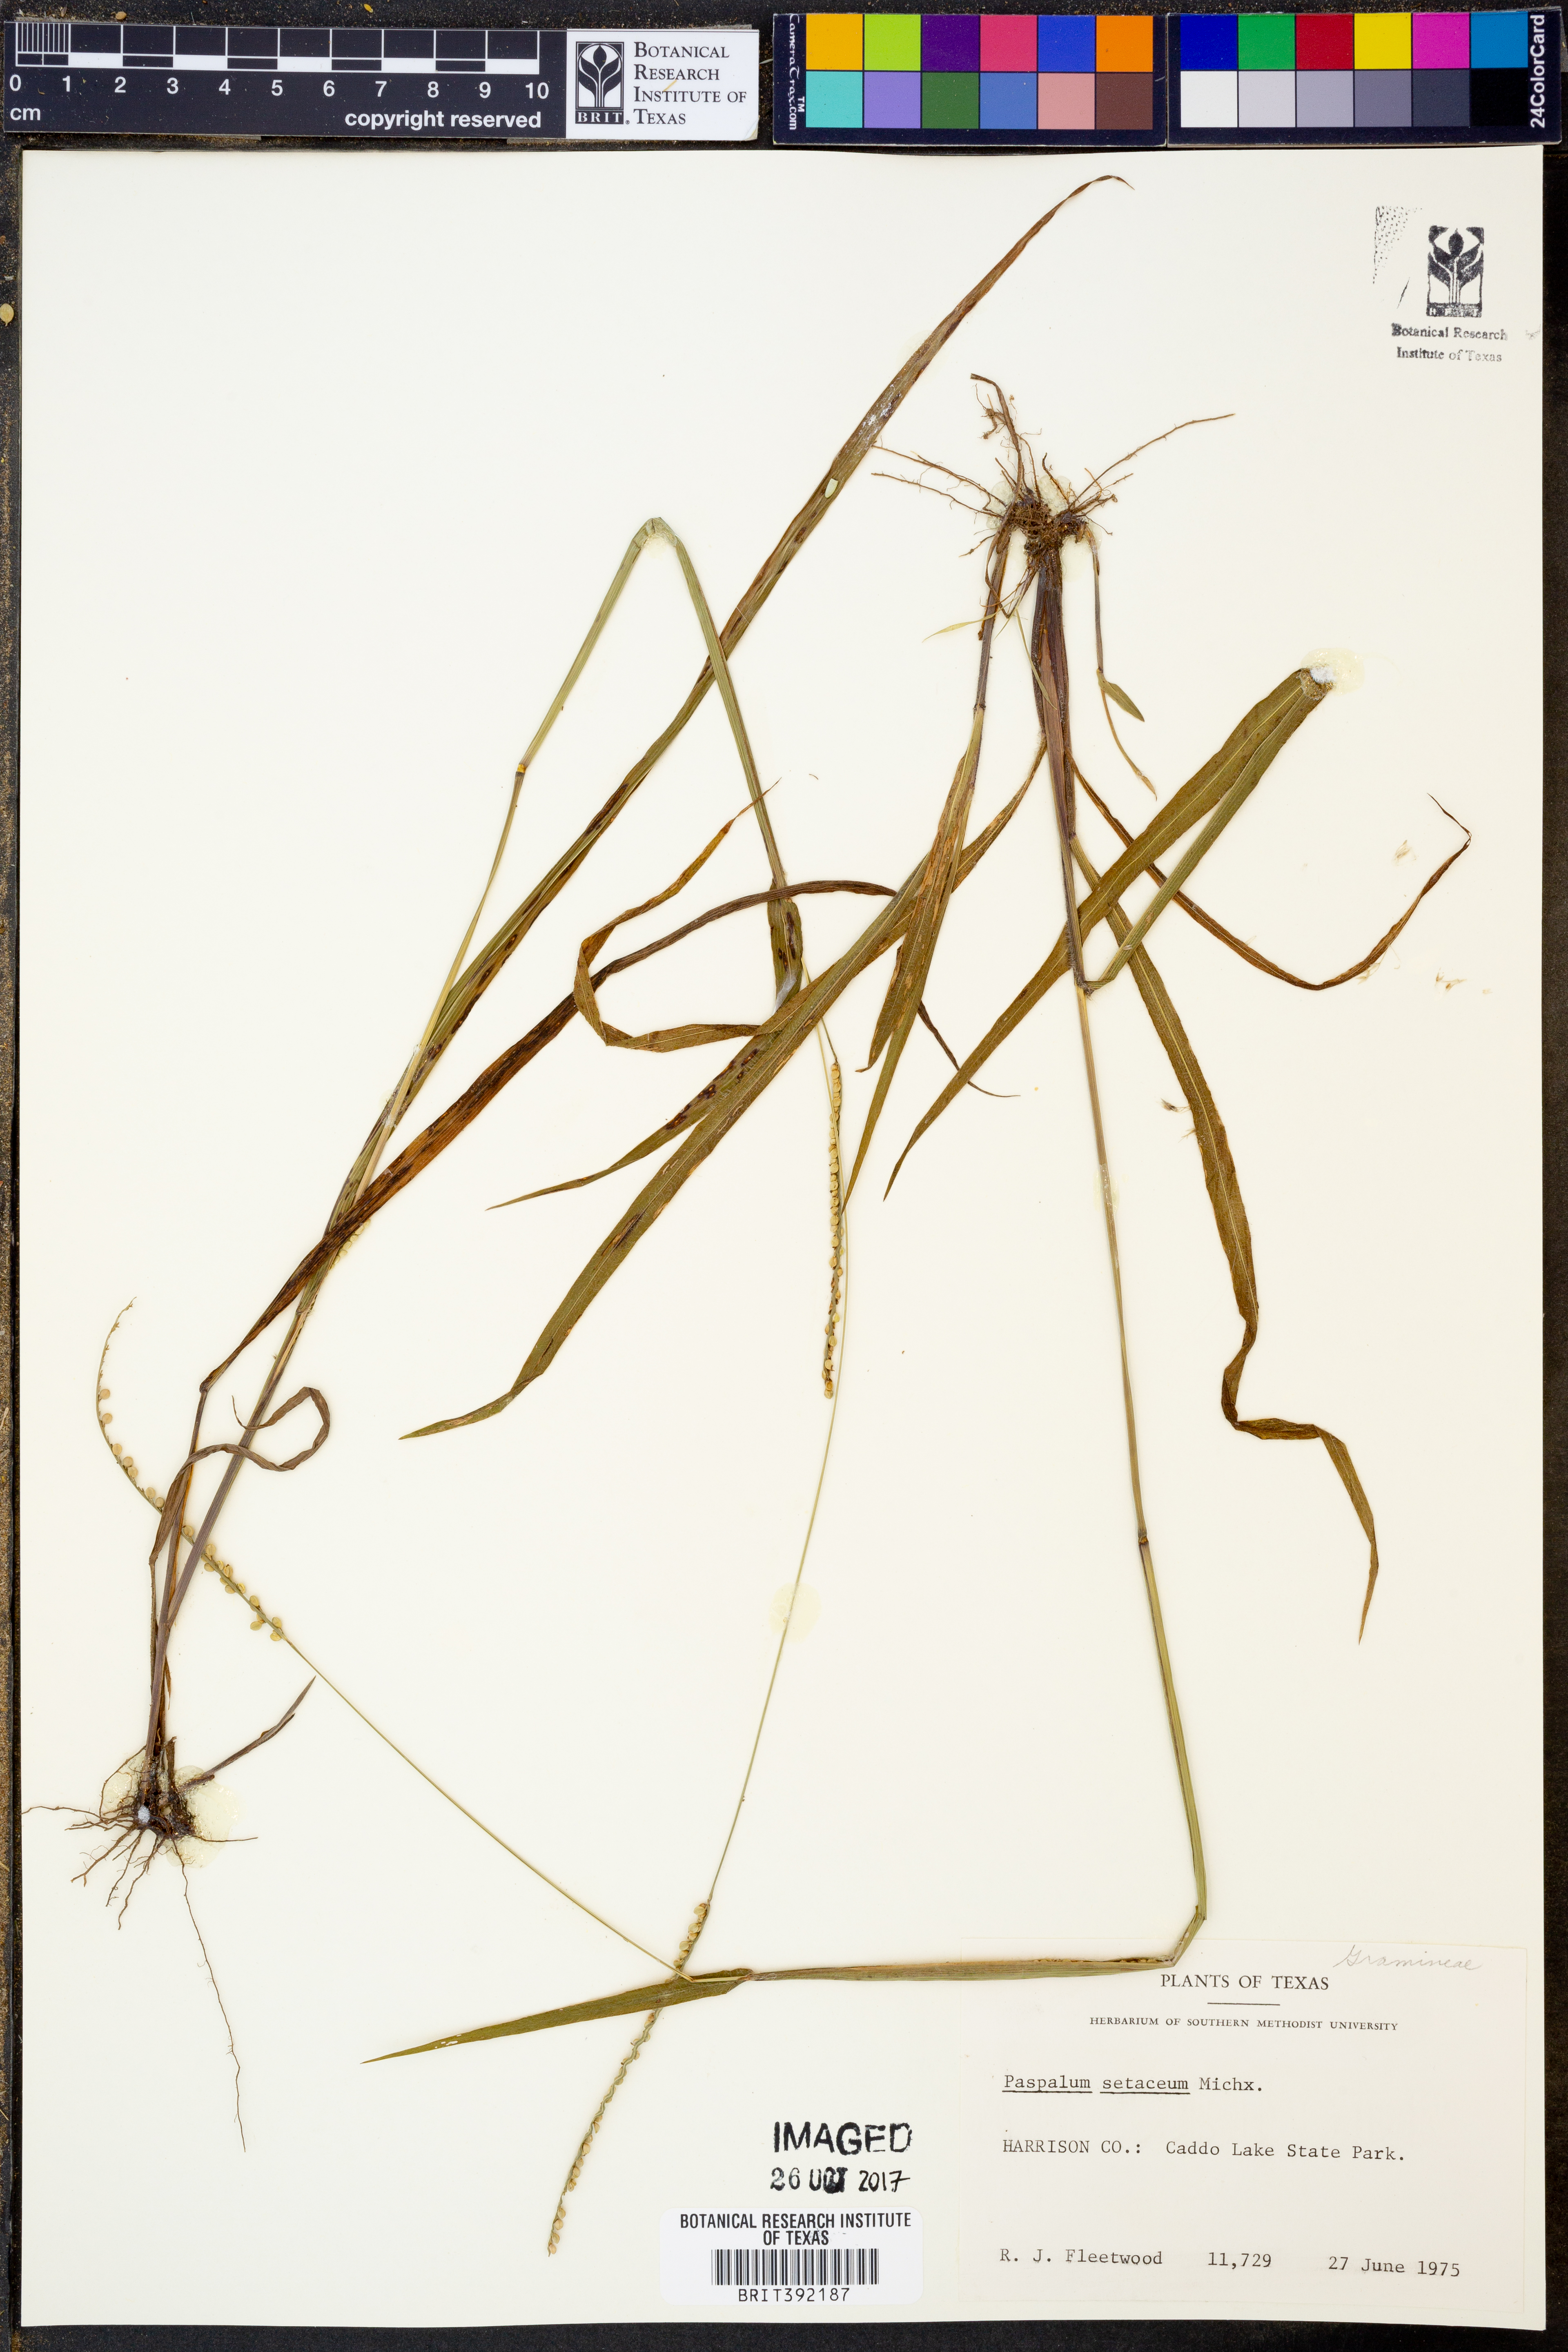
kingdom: Plantae
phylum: Tracheophyta
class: Liliopsida
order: Poales
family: Poaceae
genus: Paspalum
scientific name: Paspalum setaceum
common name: Slender paspalum
